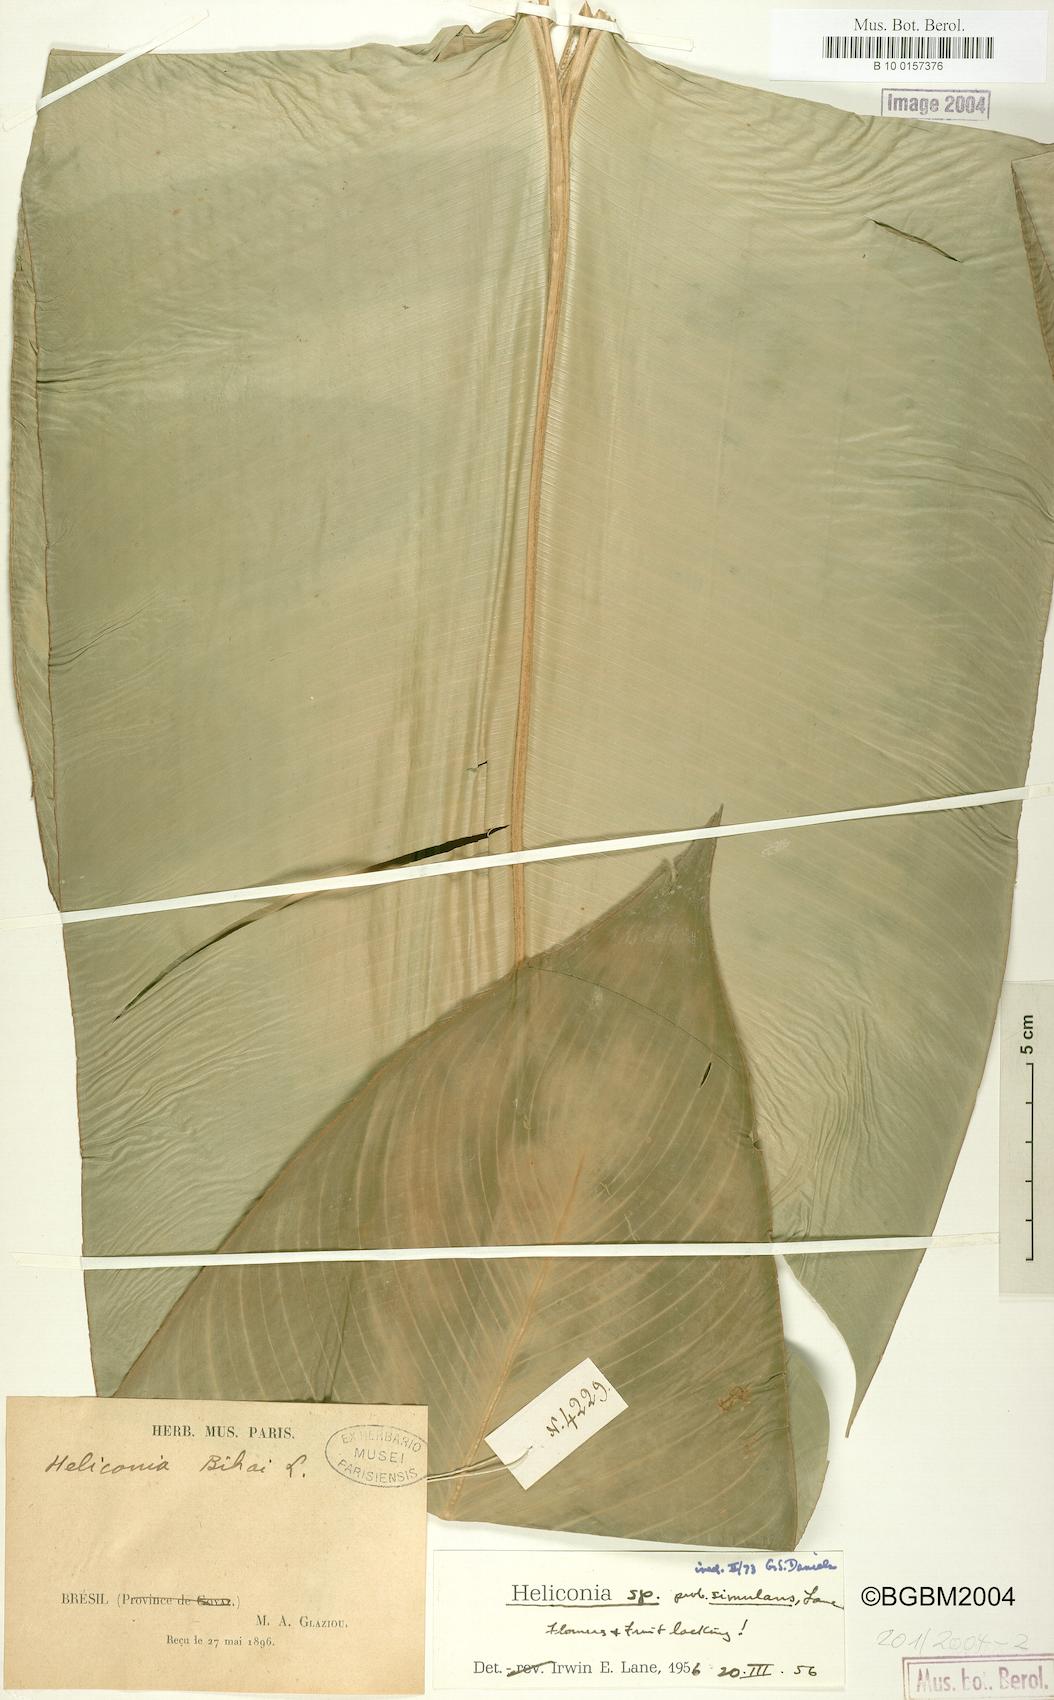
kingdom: Plantae
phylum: Tracheophyta
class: Liliopsida
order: Zingiberales
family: Heliconiaceae
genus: Heliconia
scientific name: Heliconia
